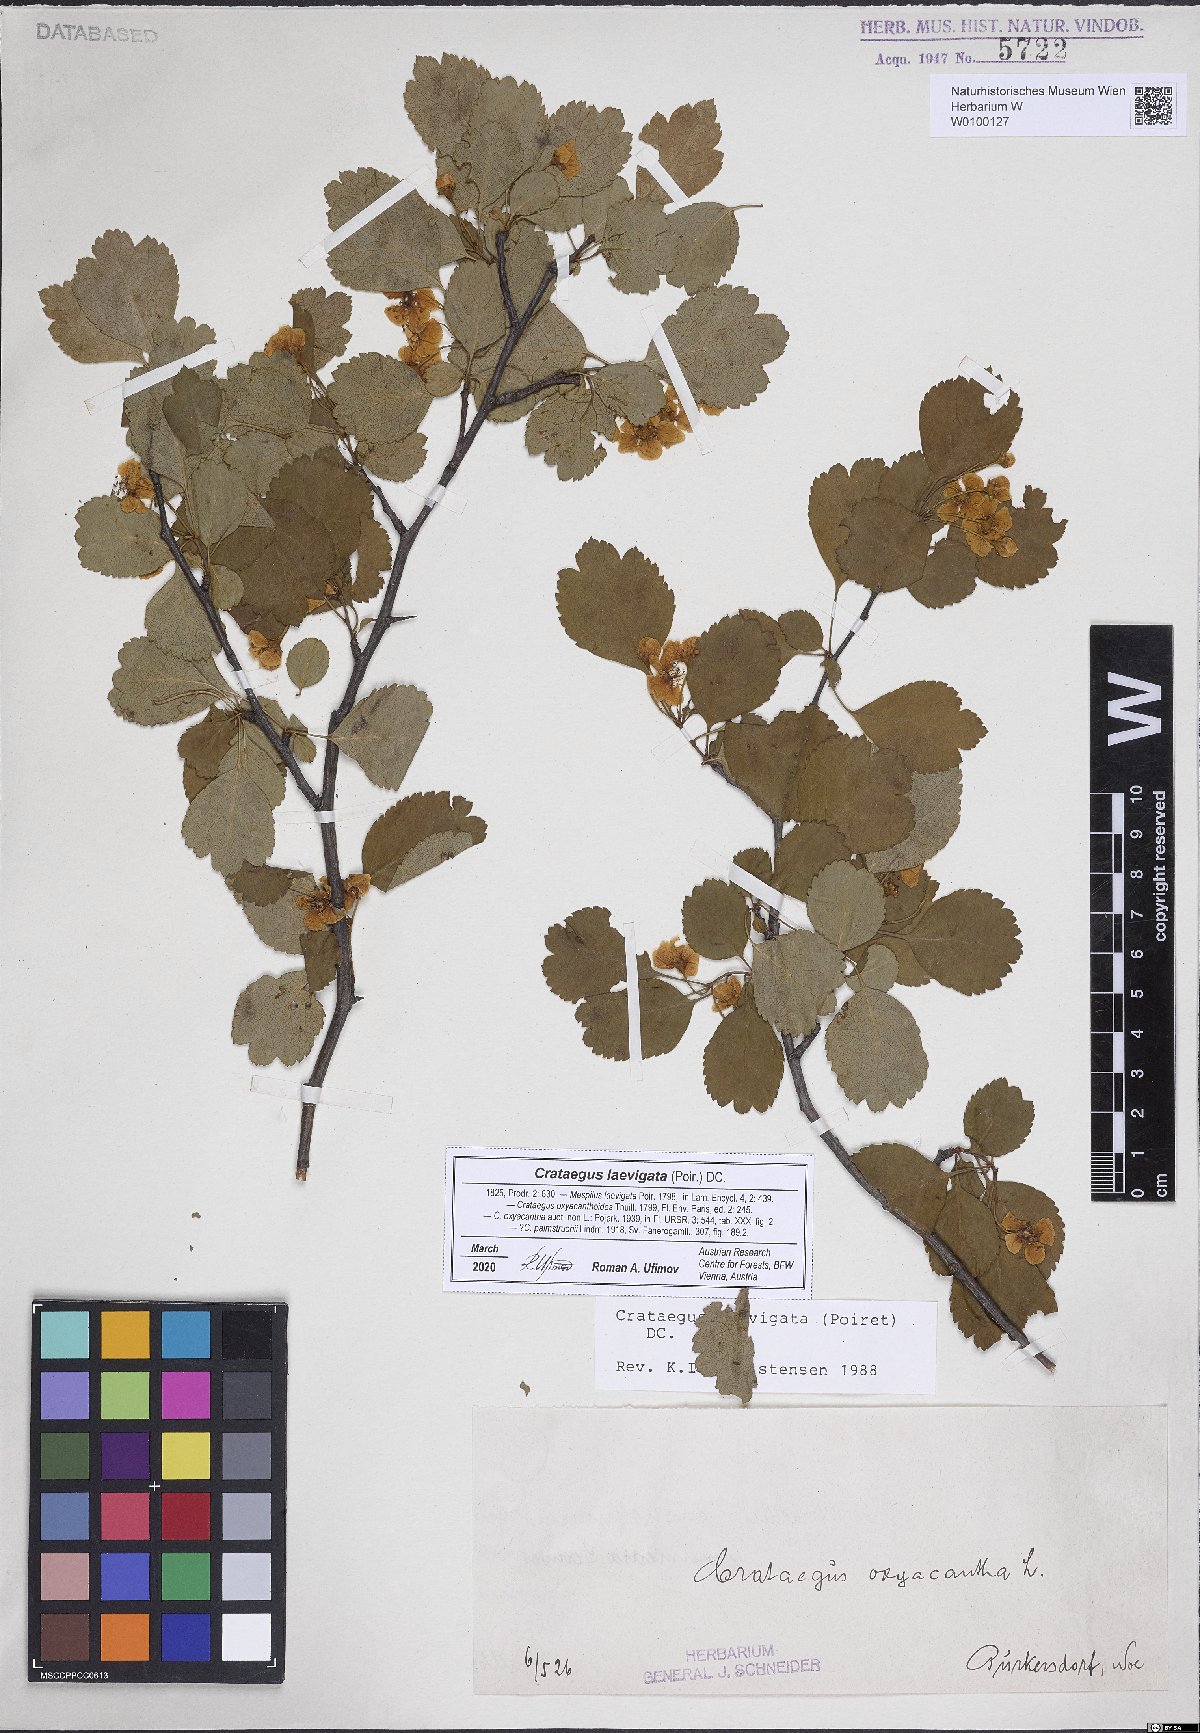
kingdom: Plantae
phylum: Tracheophyta
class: Magnoliopsida
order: Rosales
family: Rosaceae
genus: Crataegus
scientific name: Crataegus laevigata
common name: Midland hawthorn
